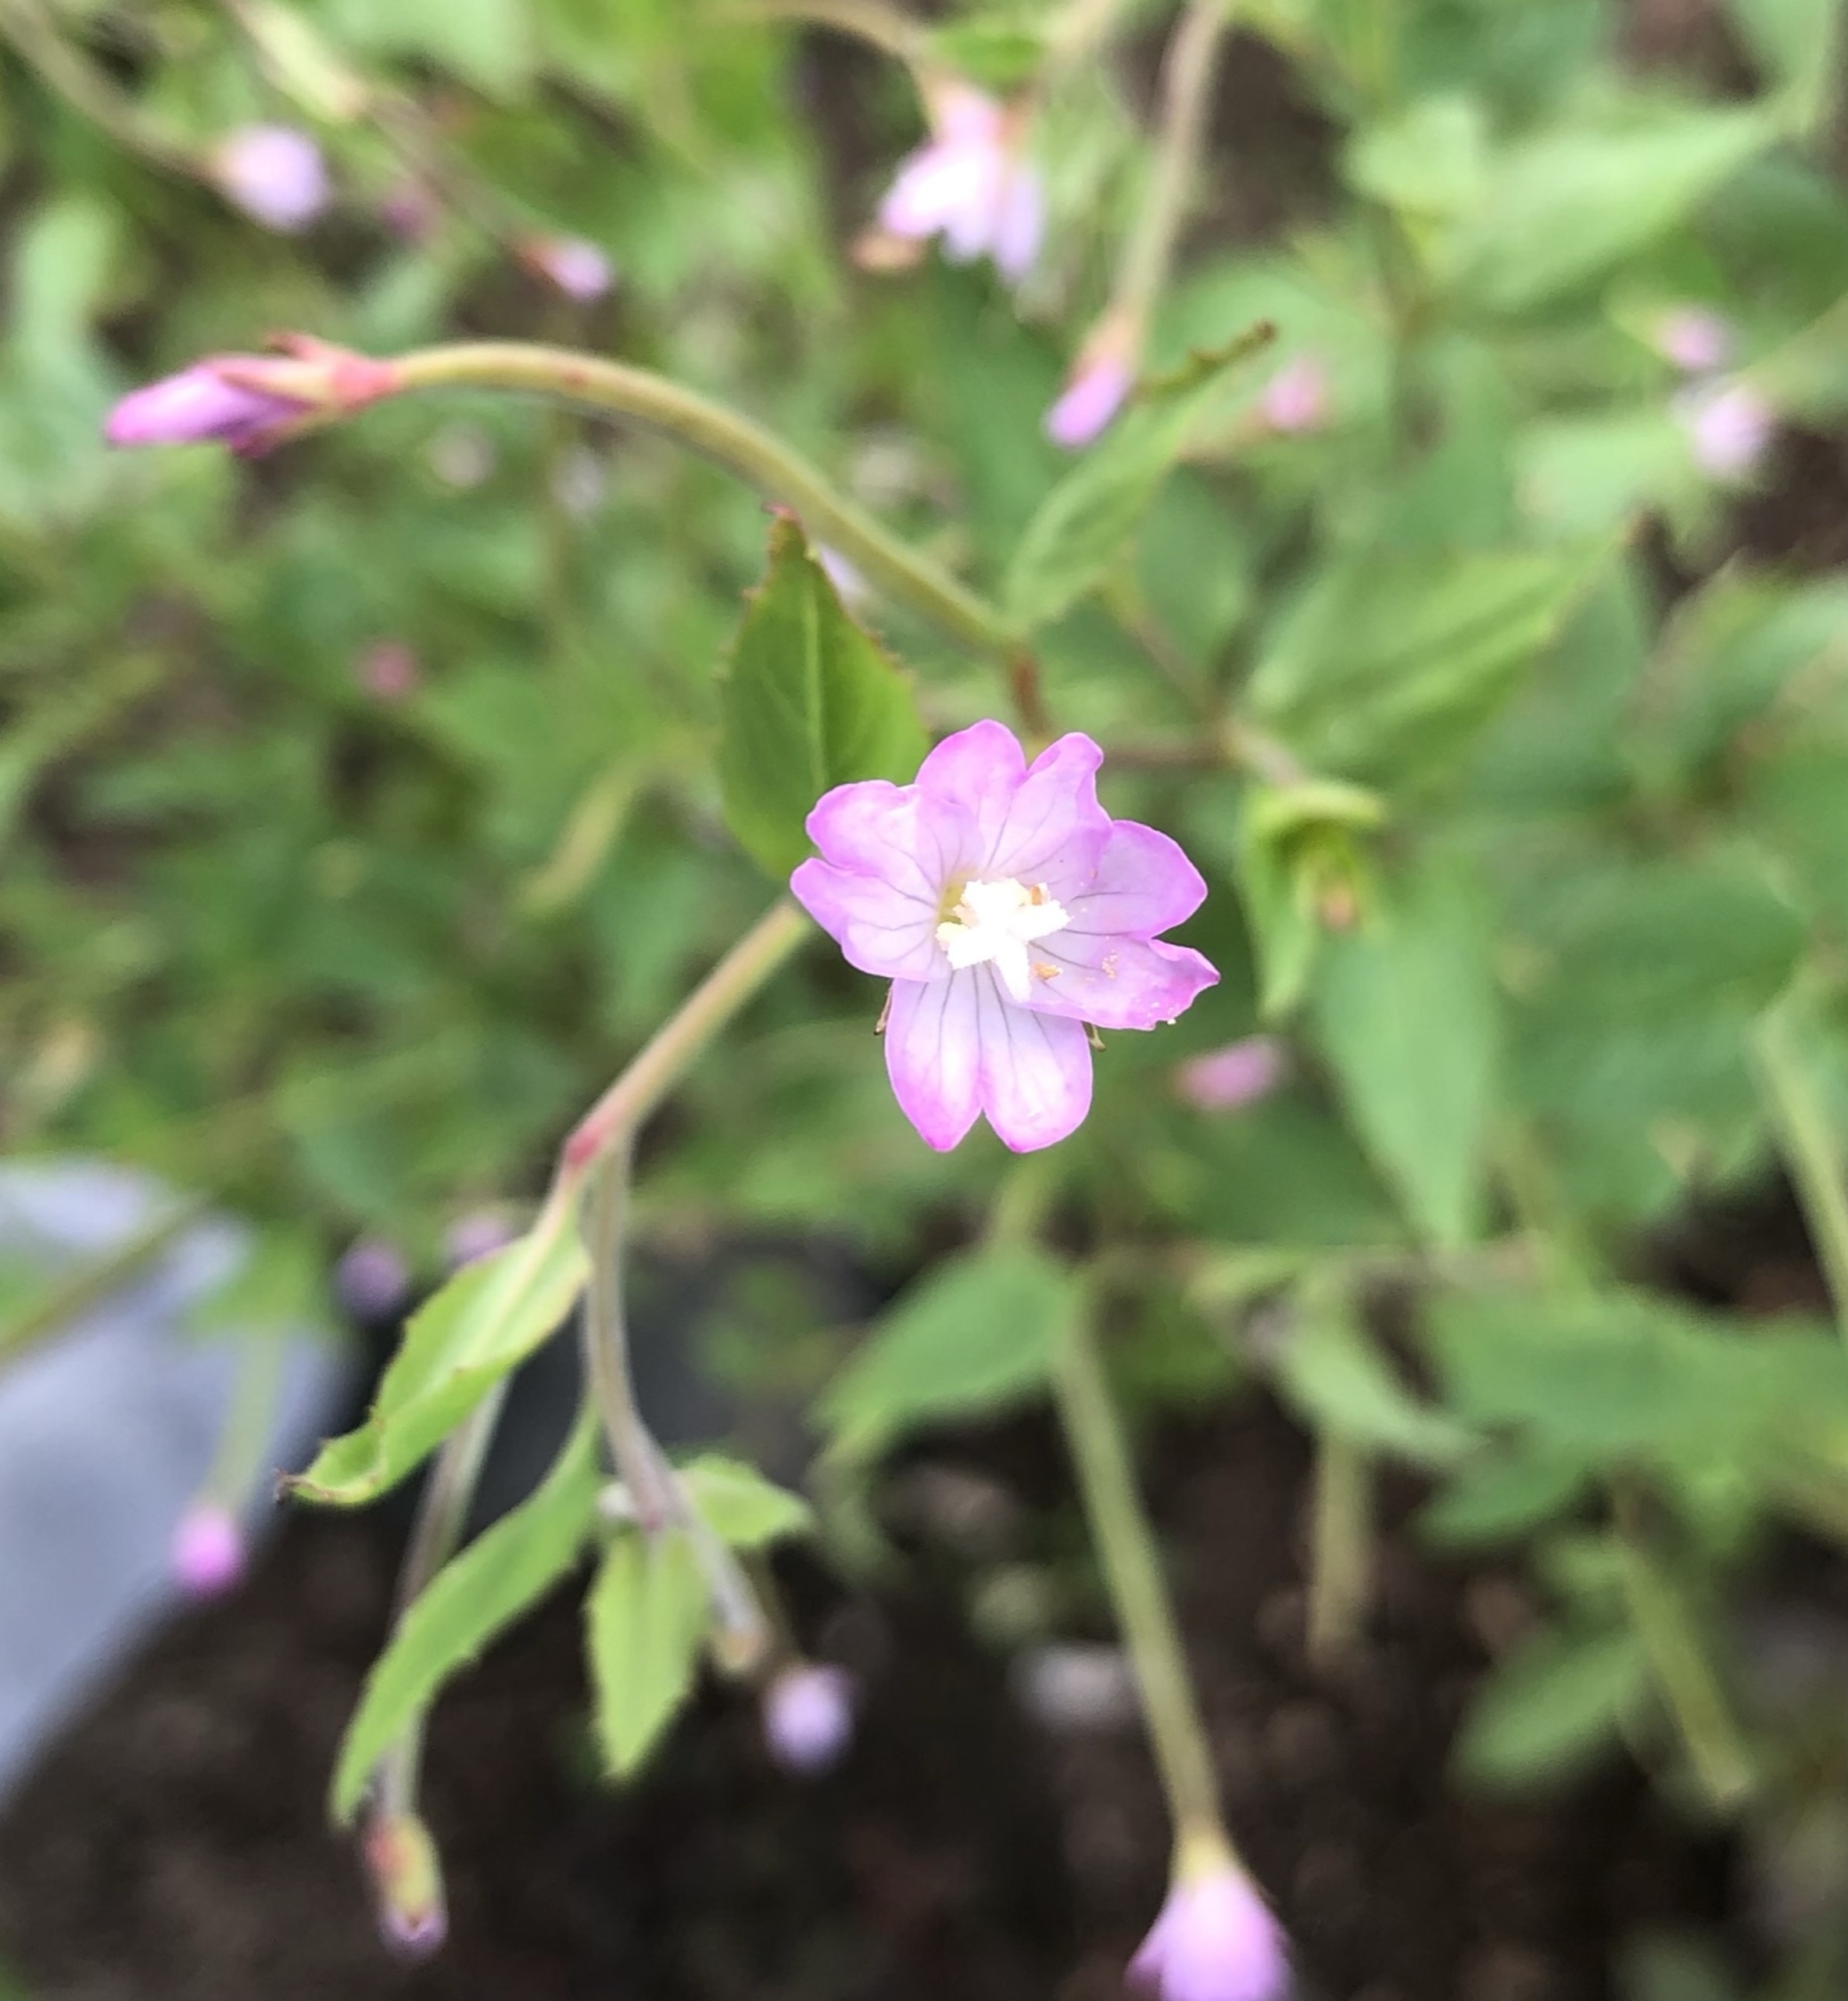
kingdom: Plantae
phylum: Tracheophyta
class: Magnoliopsida
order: Myrtales
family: Onagraceae
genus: Epilobium
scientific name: Epilobium montanum
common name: Glat dueurt
